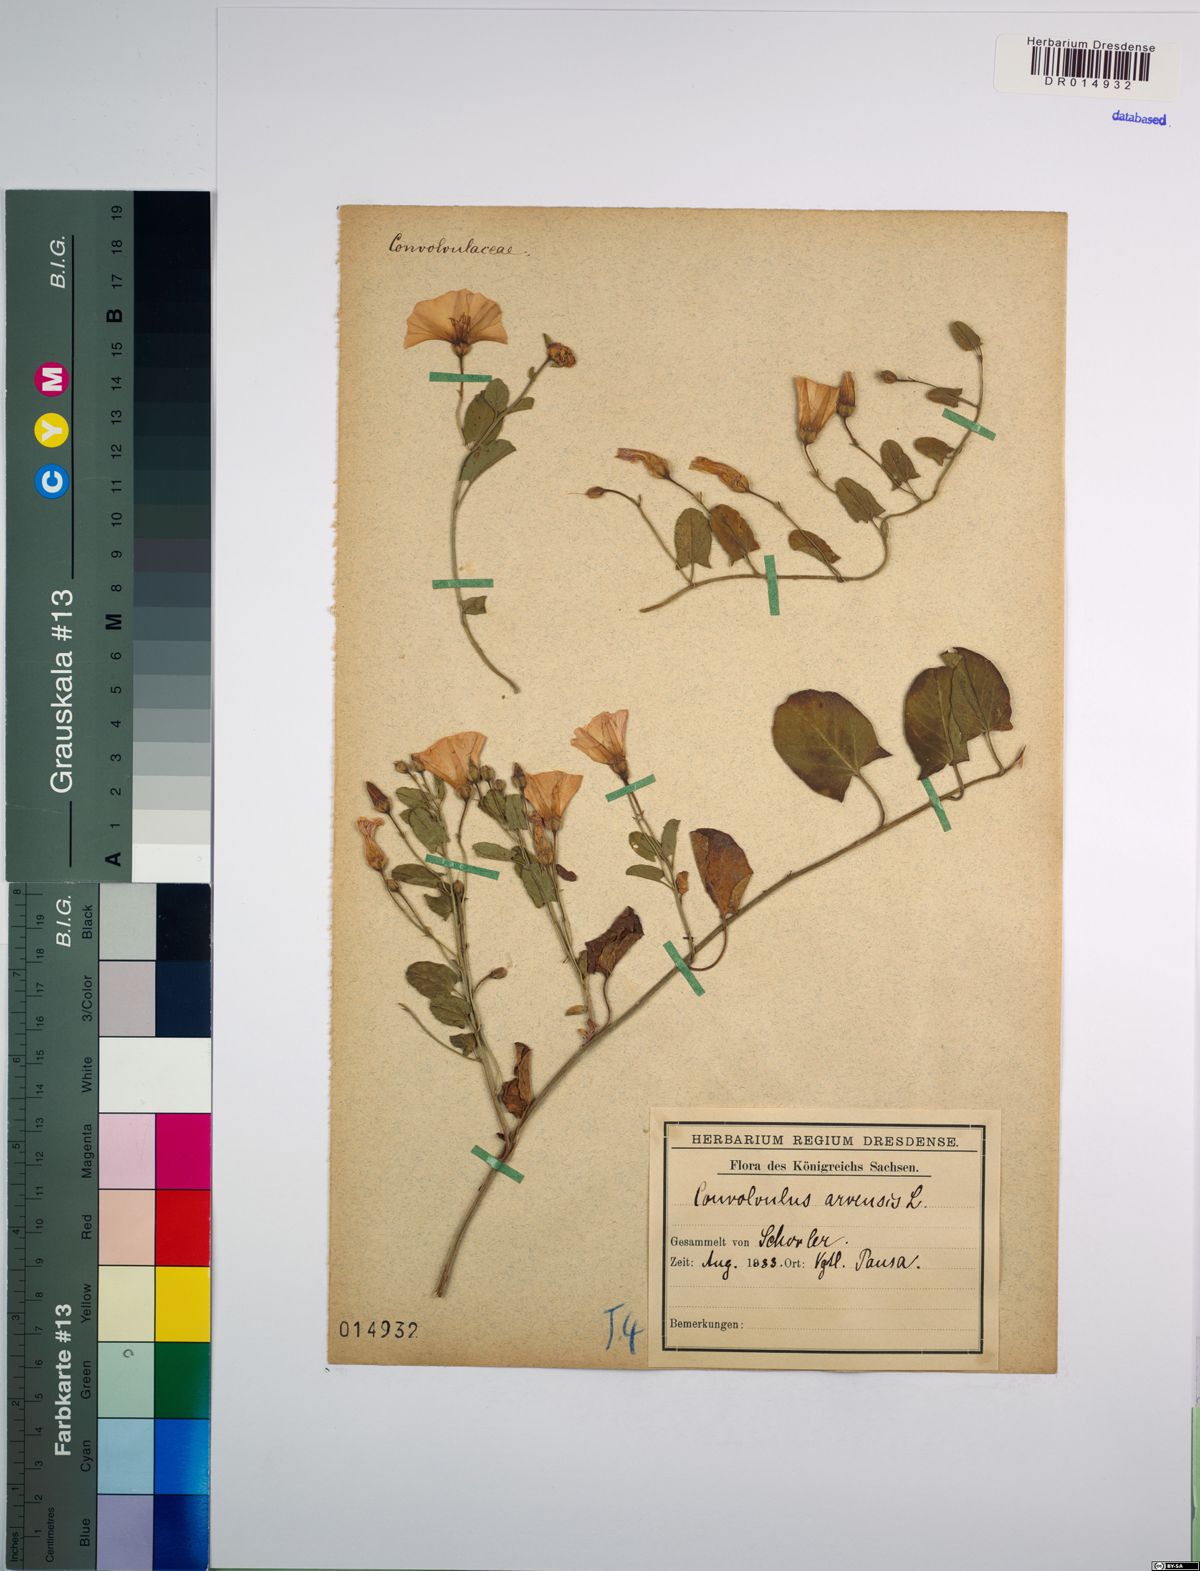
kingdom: Plantae
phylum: Tracheophyta
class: Magnoliopsida
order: Solanales
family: Convolvulaceae
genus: Convolvulus
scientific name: Convolvulus arvensis
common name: Field bindweed
